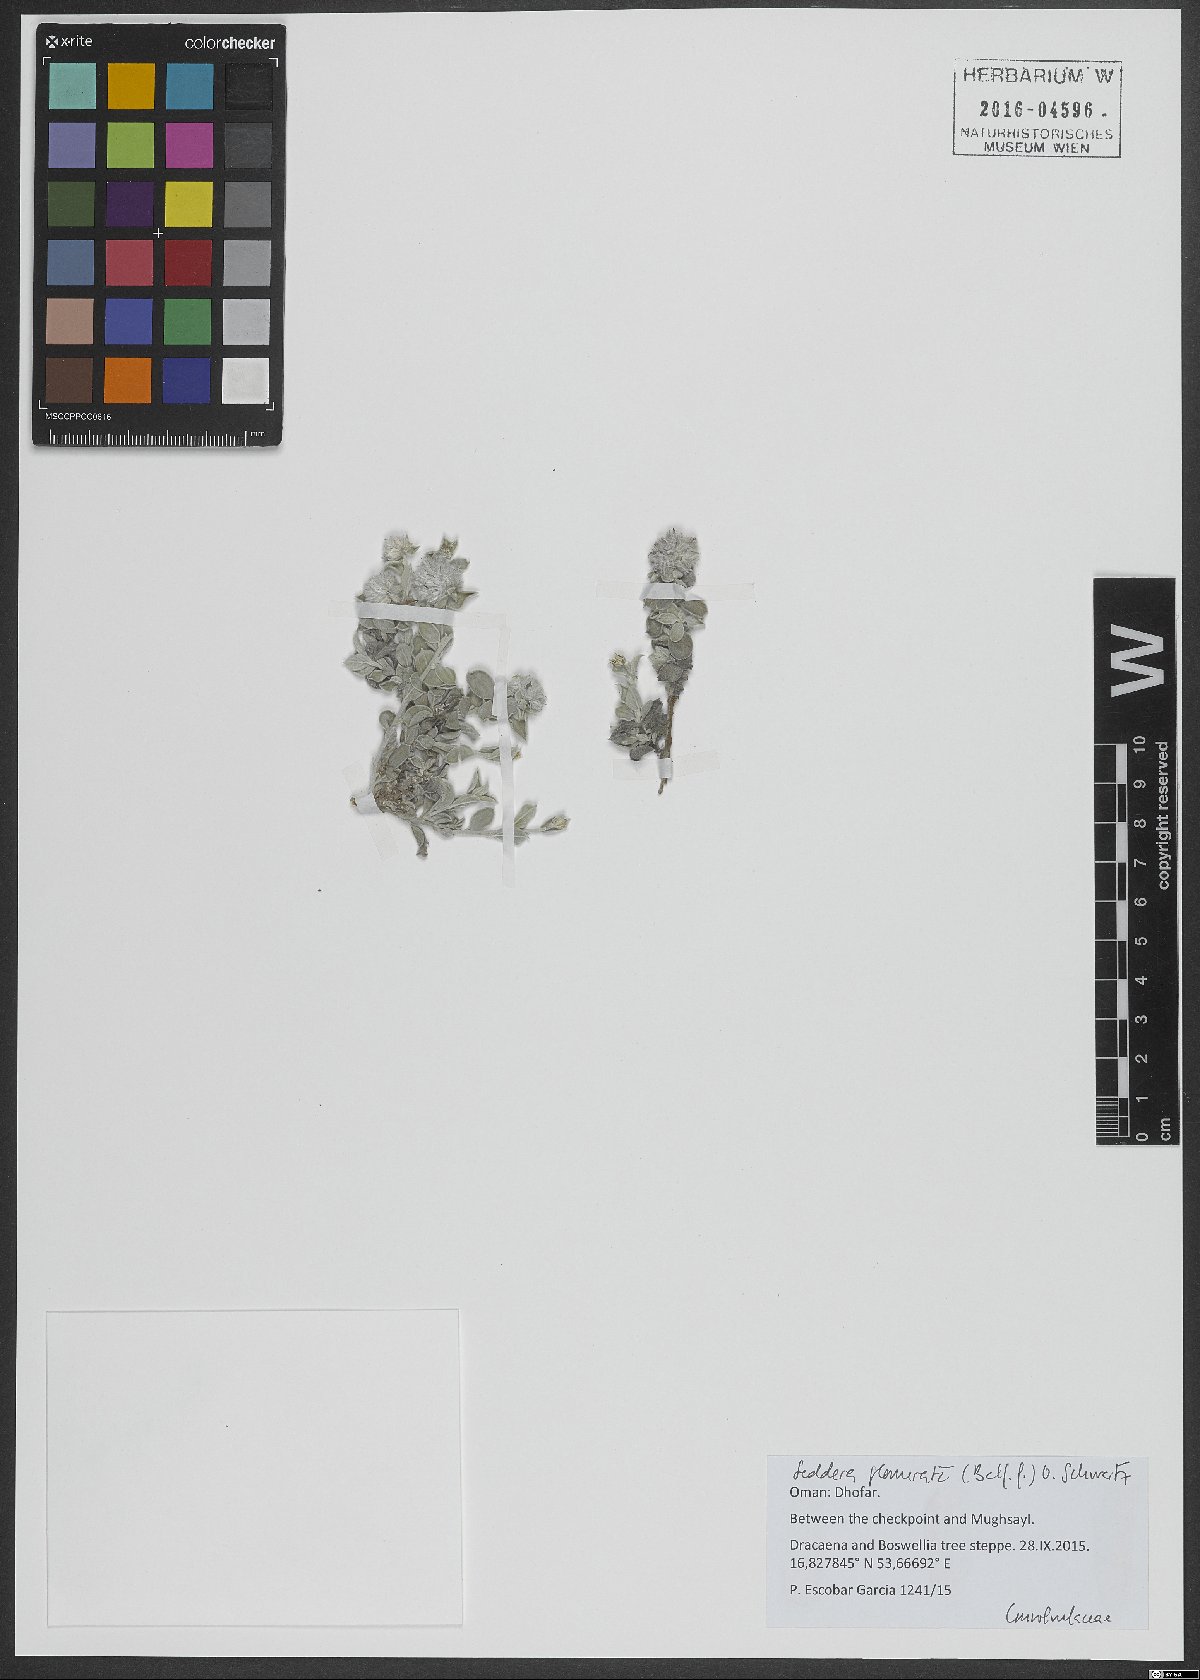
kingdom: Plantae
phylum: Tracheophyta
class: Magnoliopsida
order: Solanales
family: Convolvulaceae
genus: Seddera
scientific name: Seddera glomerata
